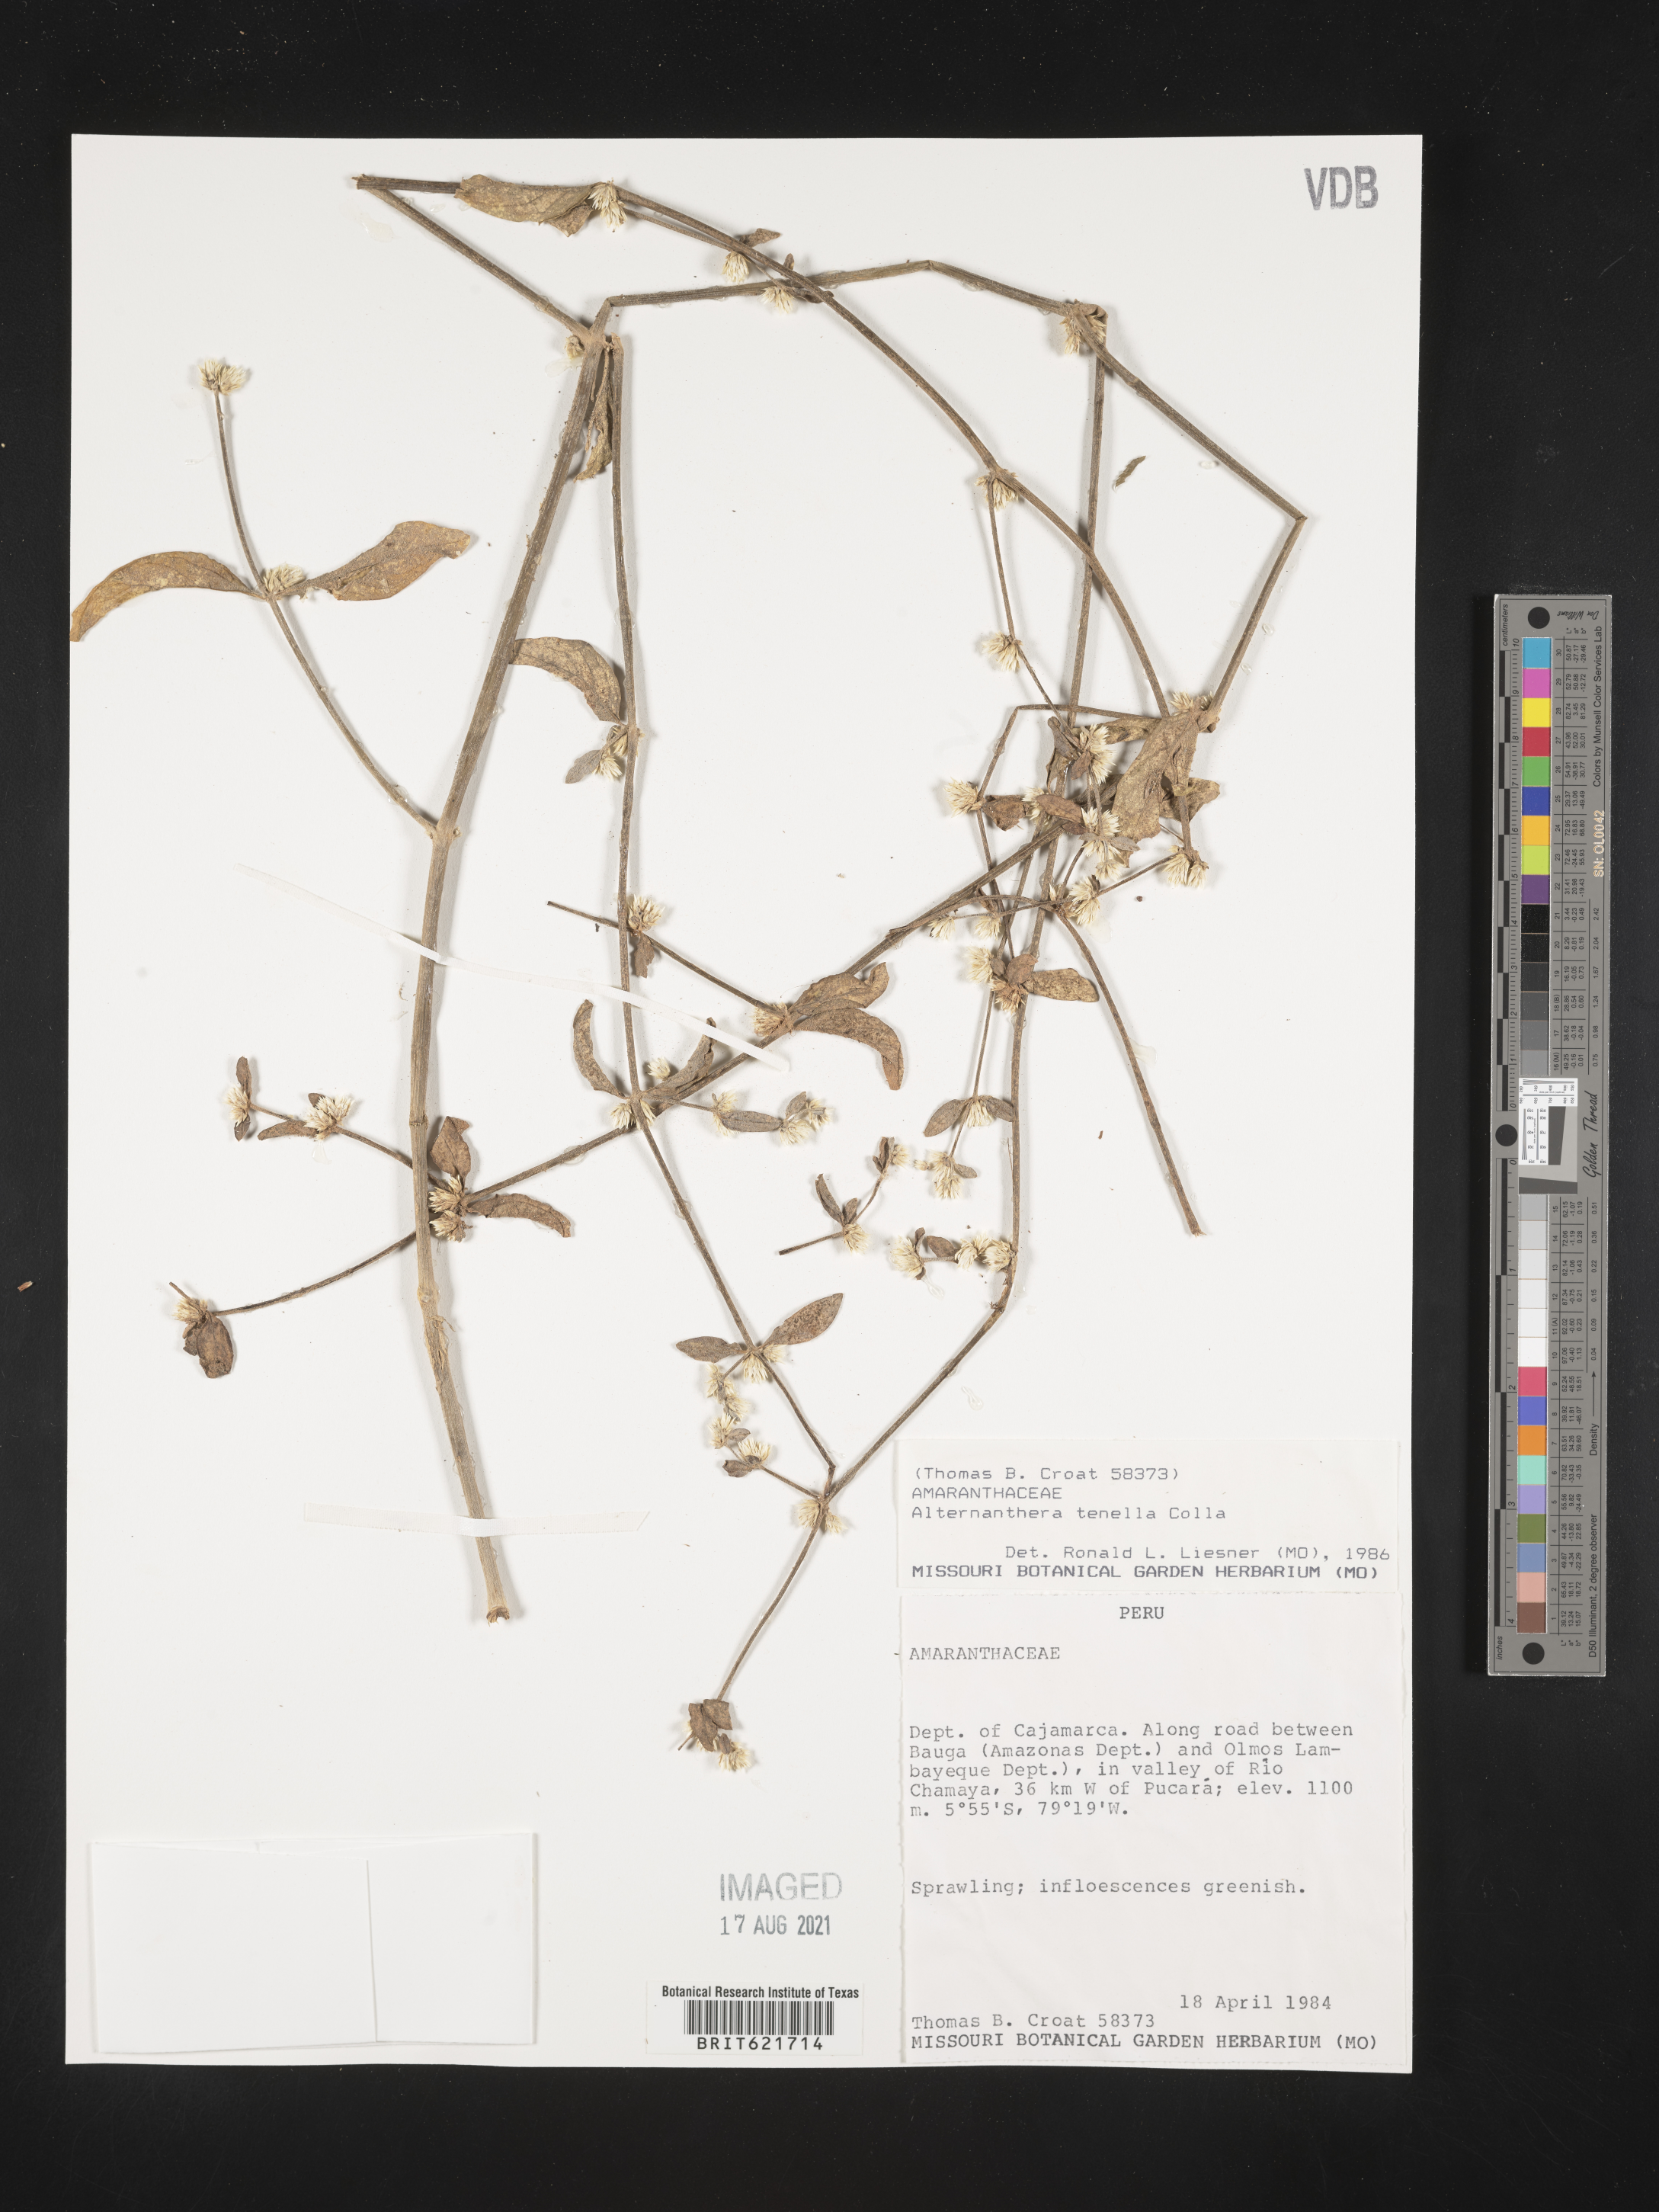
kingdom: Plantae
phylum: Tracheophyta
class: Magnoliopsida
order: Caryophyllales
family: Amaranthaceae
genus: Alternanthera
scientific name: Alternanthera ficoidea
